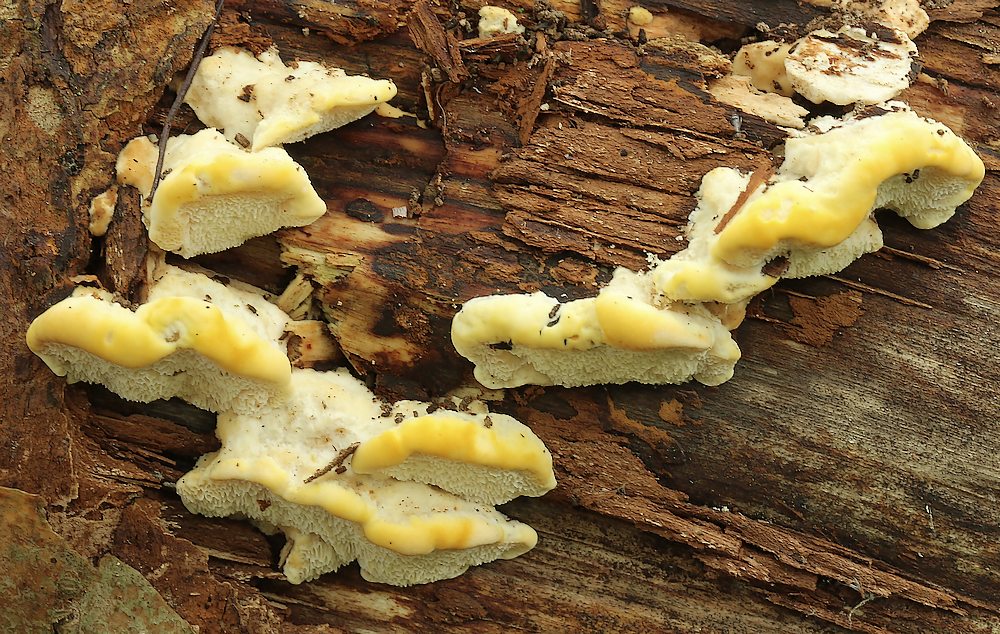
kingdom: Fungi
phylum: Basidiomycota
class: Agaricomycetes
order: Polyporales
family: Steccherinaceae
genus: Antrodiella
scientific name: Antrodiella serpula
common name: gulrandet elastikporesvamp
